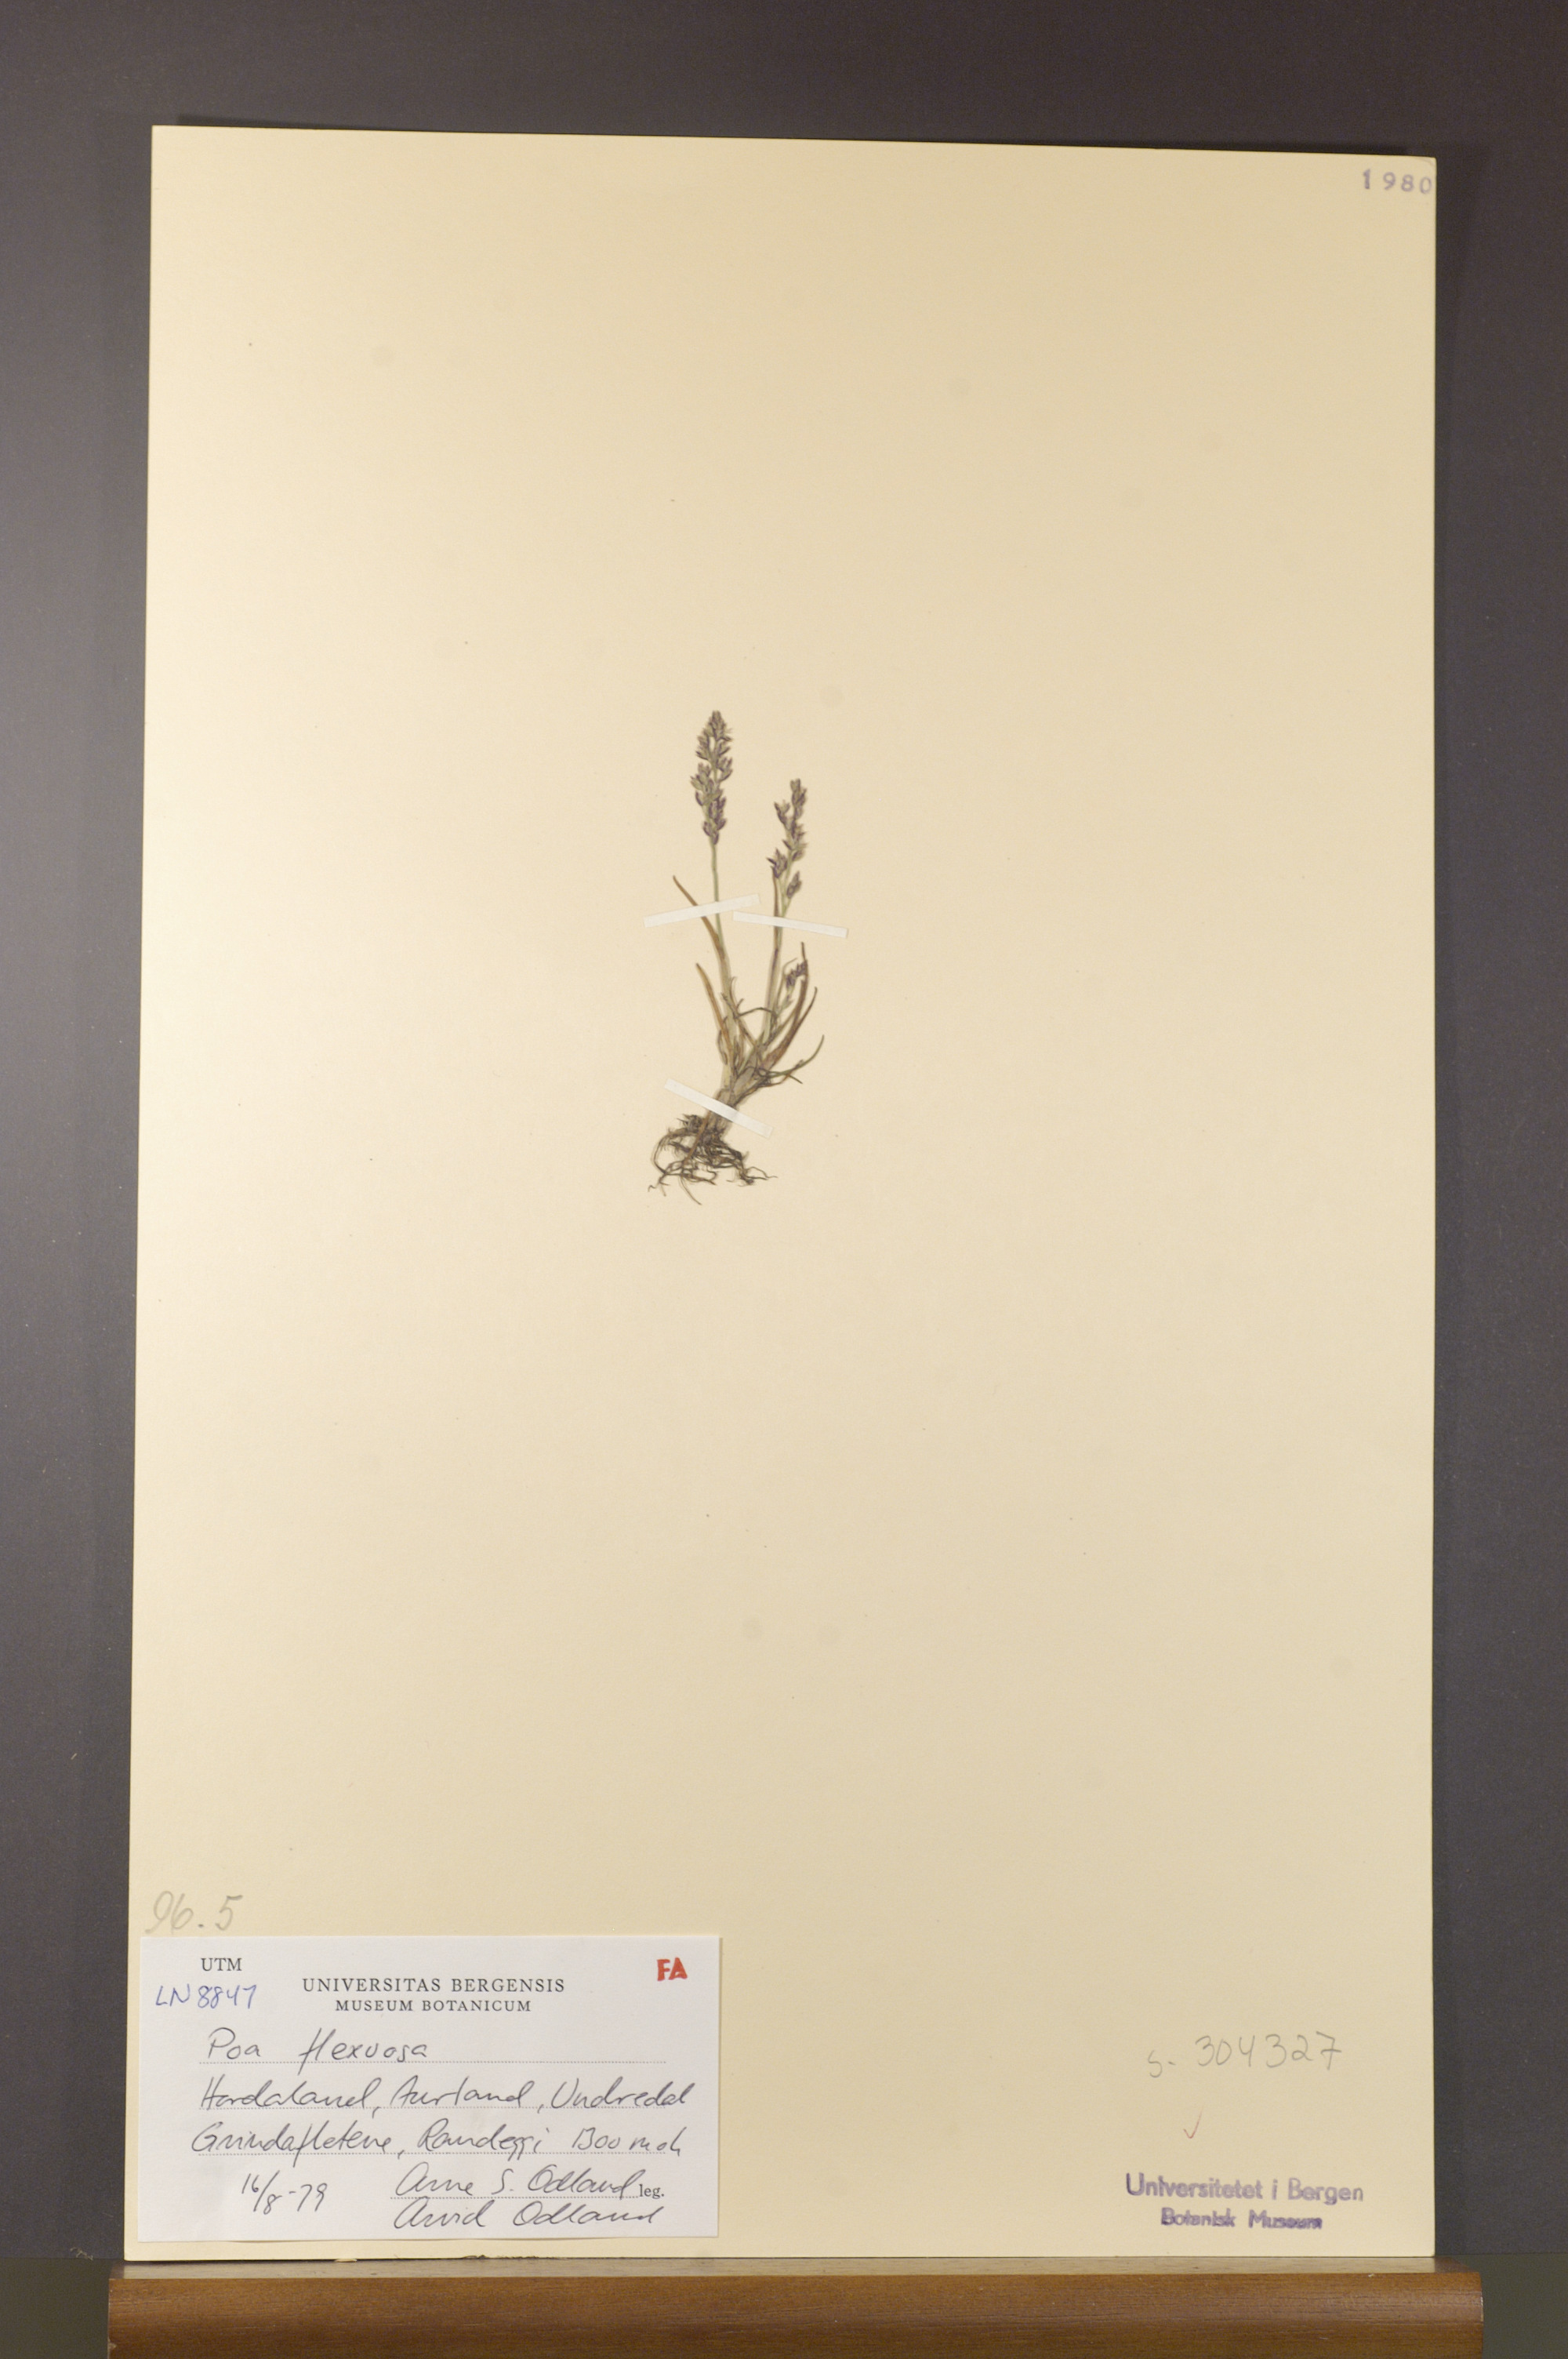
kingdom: Plantae
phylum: Tracheophyta
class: Liliopsida
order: Poales
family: Poaceae
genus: Poa
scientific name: Poa flexuosa
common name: Wavy meadow-grass
